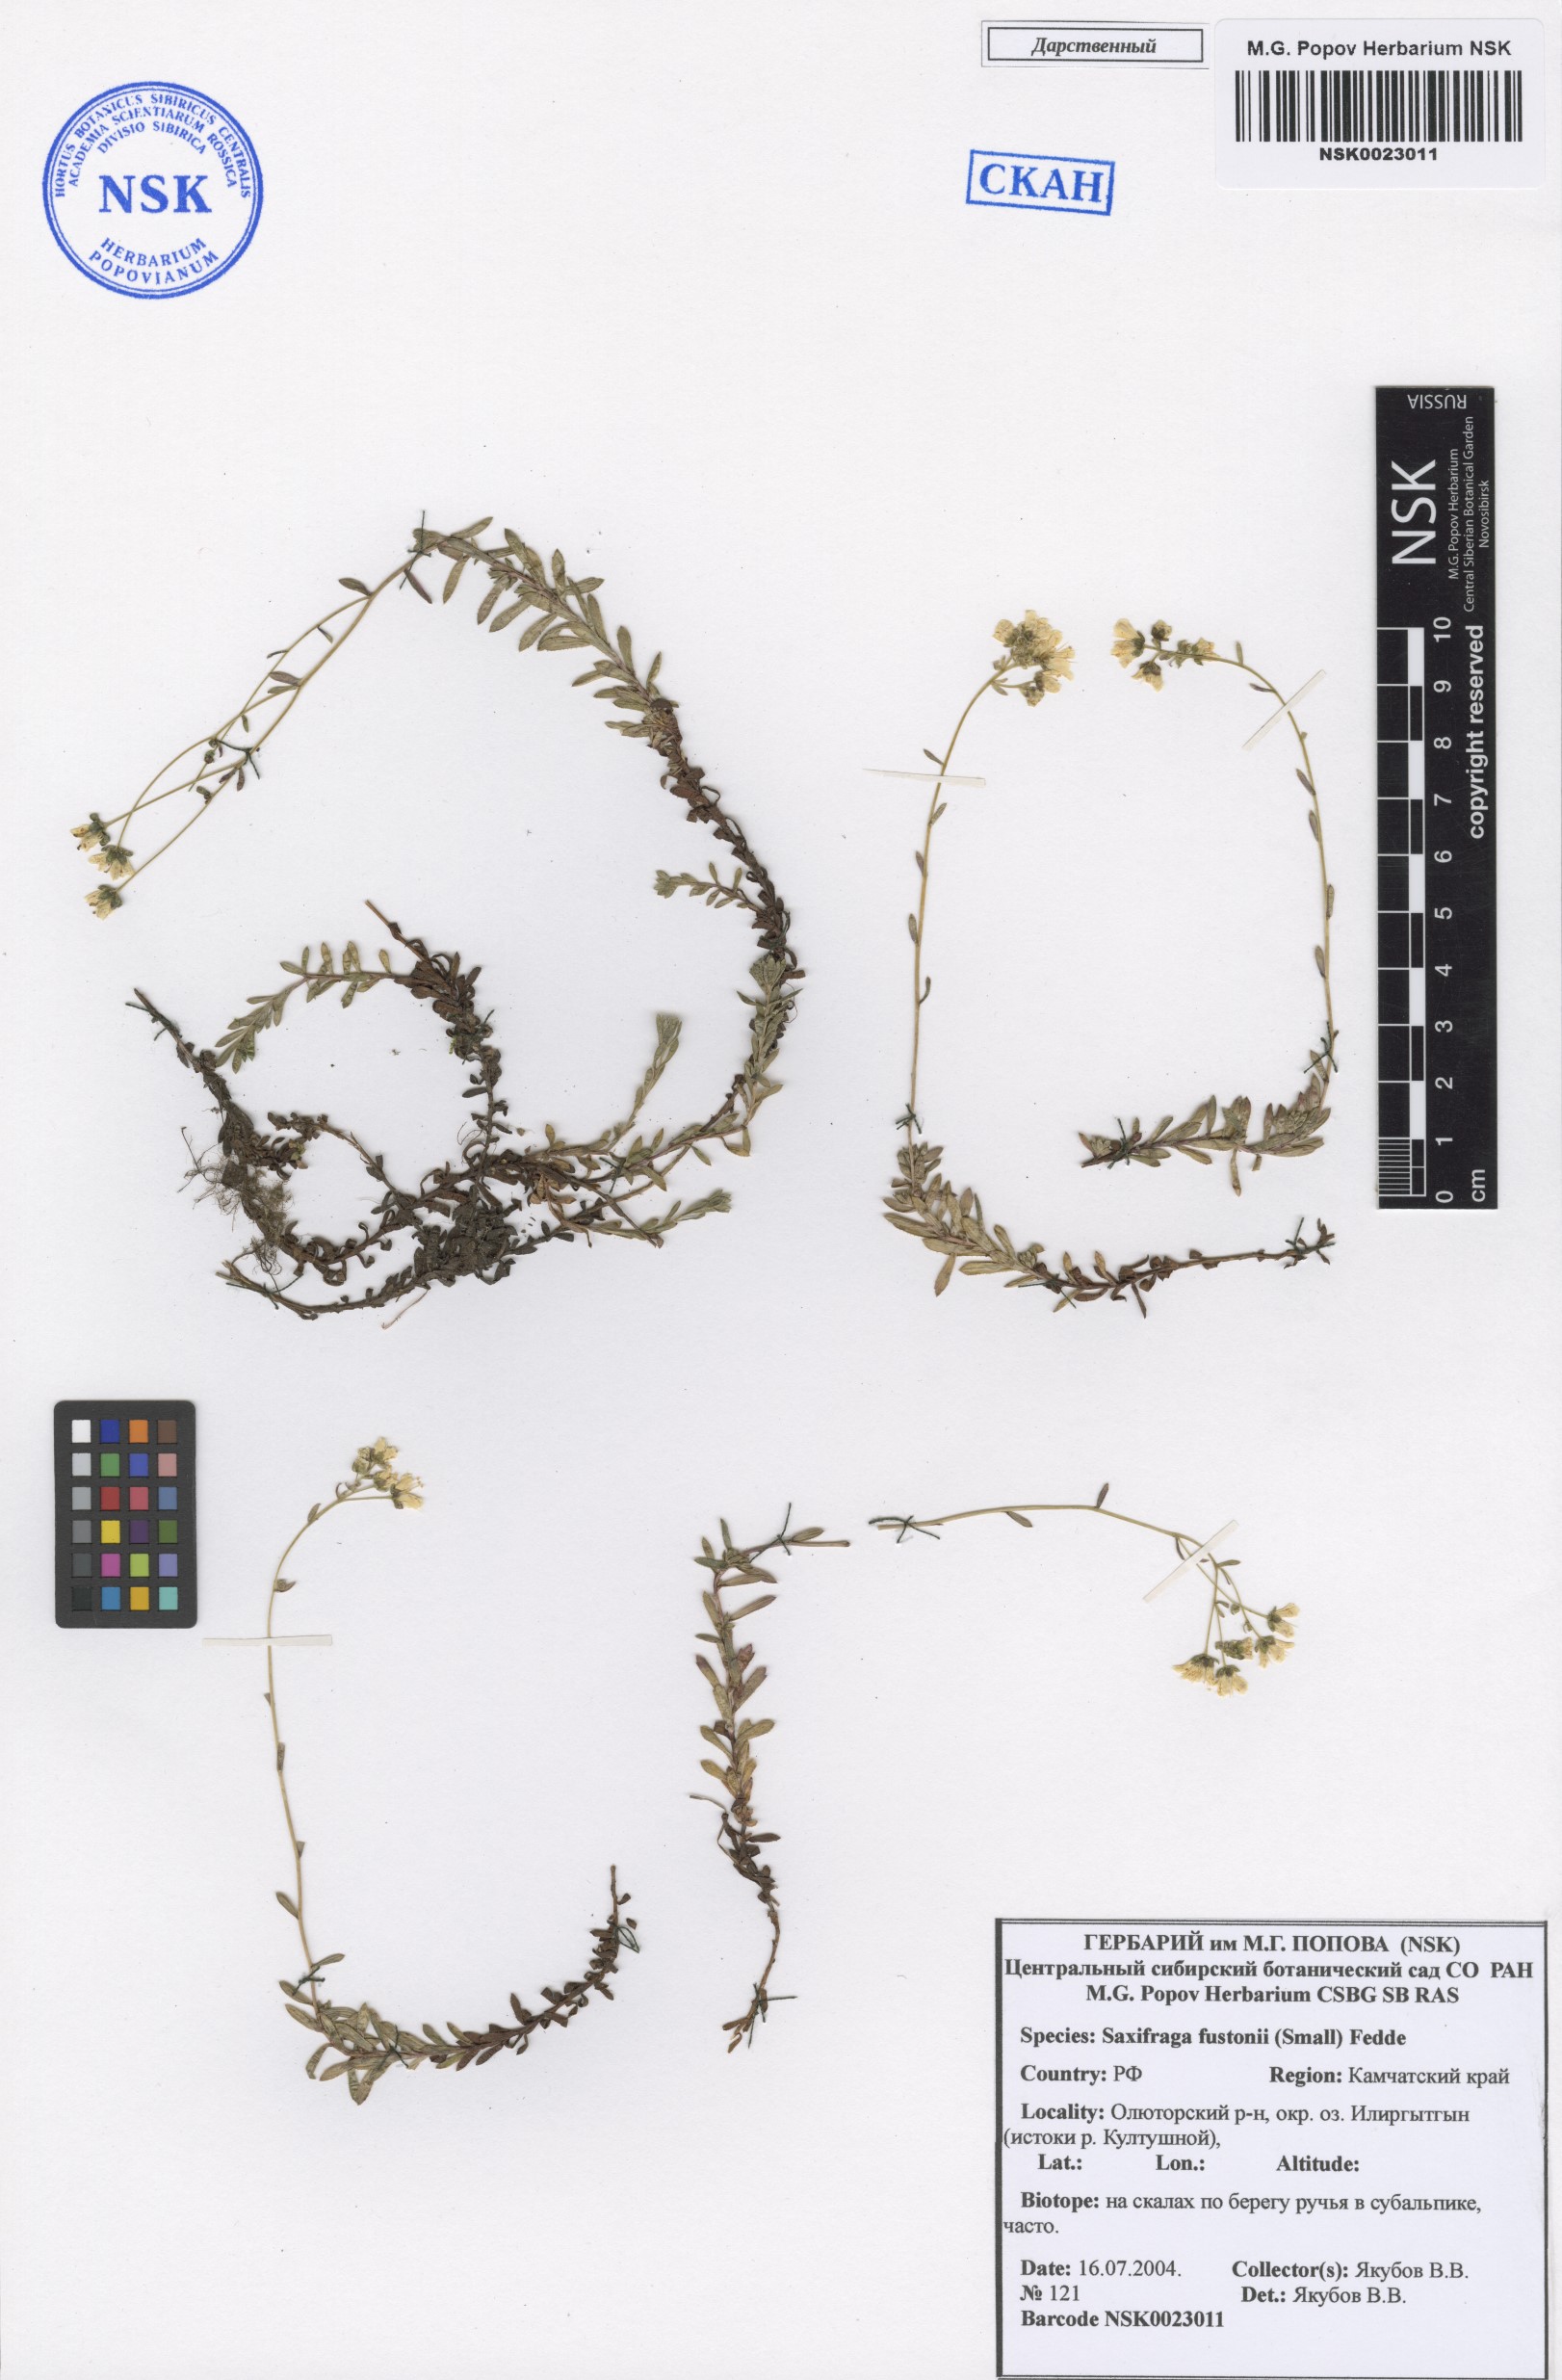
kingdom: Plantae
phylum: Tracheophyta
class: Magnoliopsida
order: Saxifragales
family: Saxifragaceae
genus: Saxifraga
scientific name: Saxifraga bronchialis
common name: Matted saxifrage
